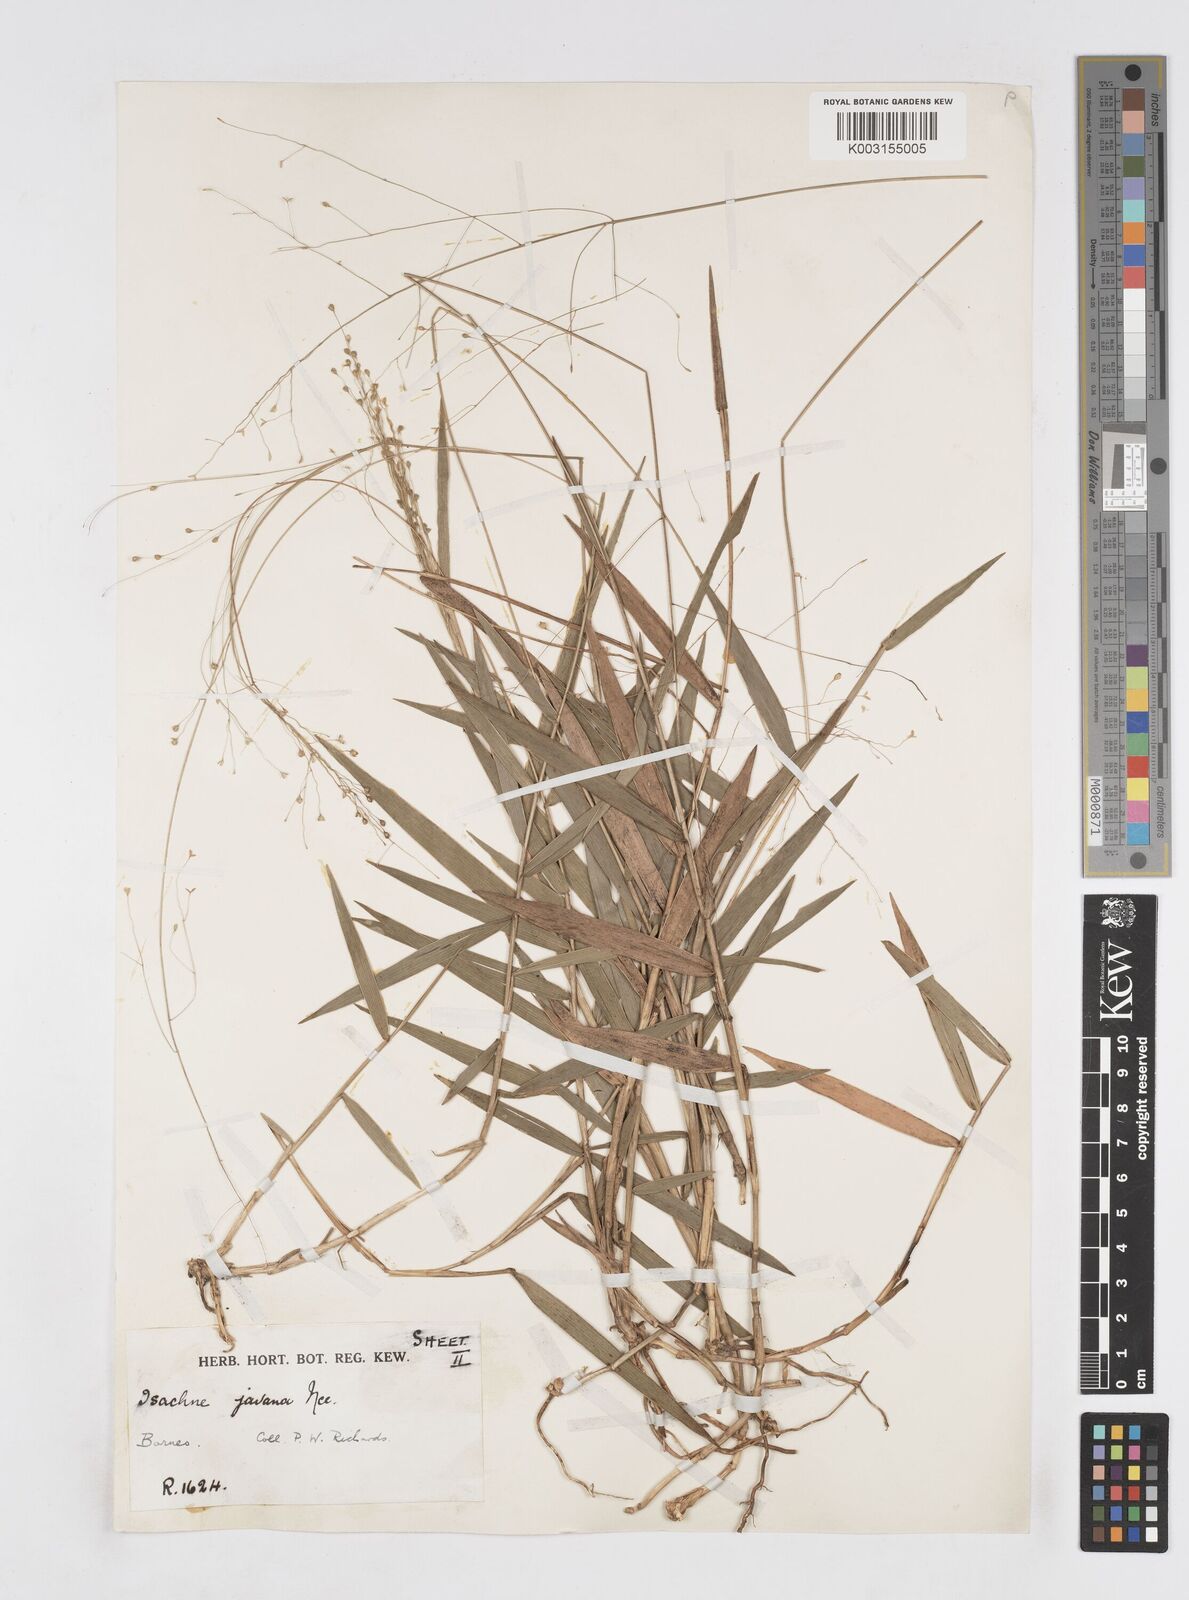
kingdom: Plantae
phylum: Tracheophyta
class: Liliopsida
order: Poales
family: Poaceae
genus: Isachne
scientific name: Isachne kinabaluensis
